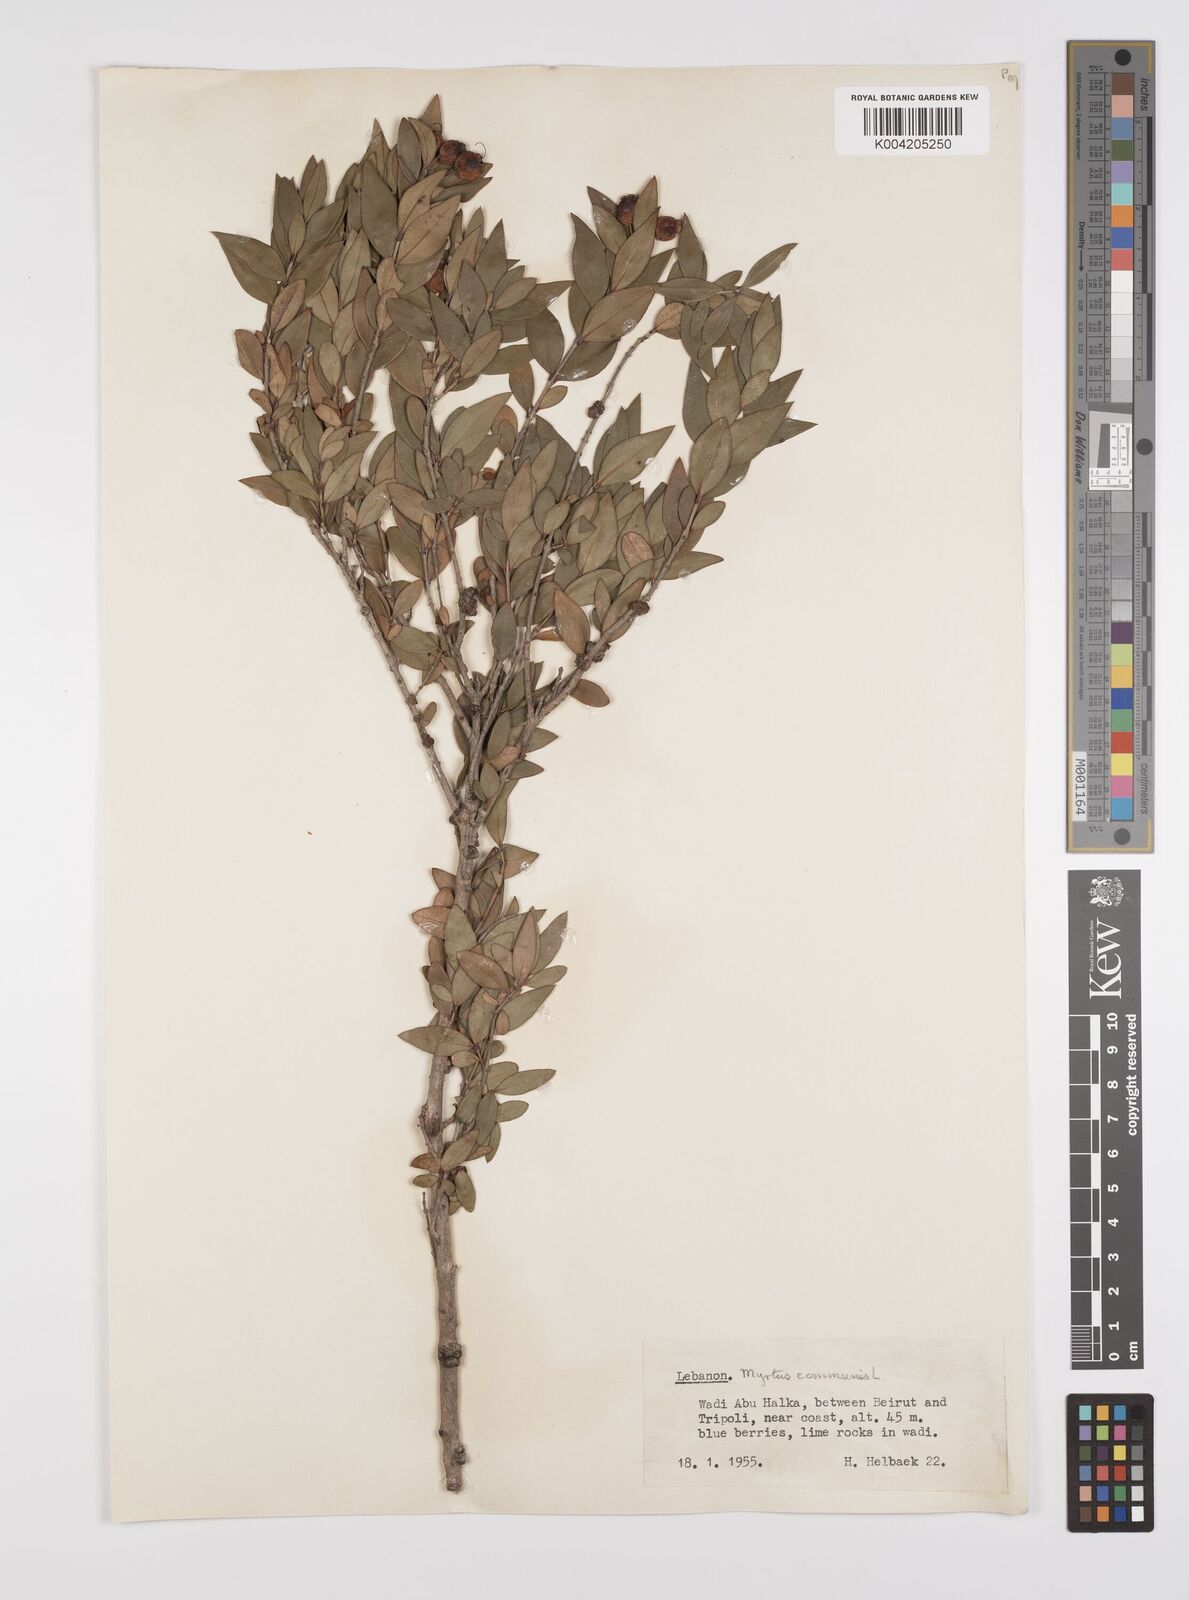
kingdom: Plantae
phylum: Tracheophyta
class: Magnoliopsida
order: Myrtales
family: Myrtaceae
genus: Myrtus
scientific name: Myrtus communis
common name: Myrtle
